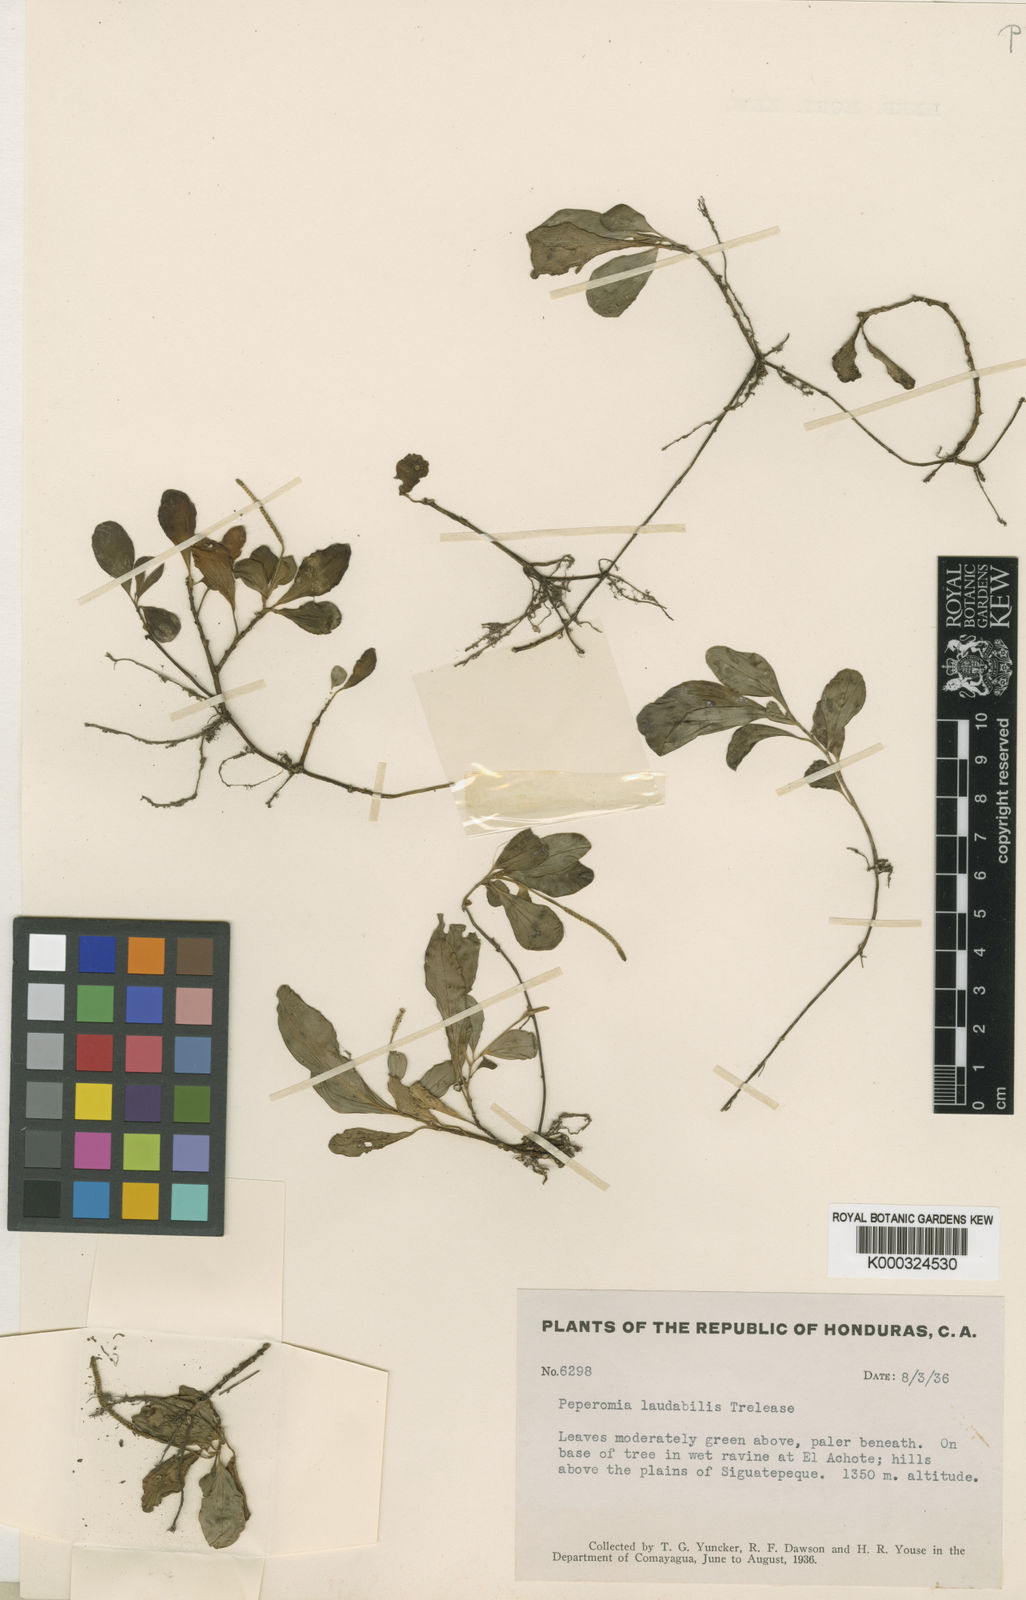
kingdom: Plantae
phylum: Tracheophyta
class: Magnoliopsida
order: Piperales
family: Piperaceae
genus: Peperomia
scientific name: Peperomia succulenta
